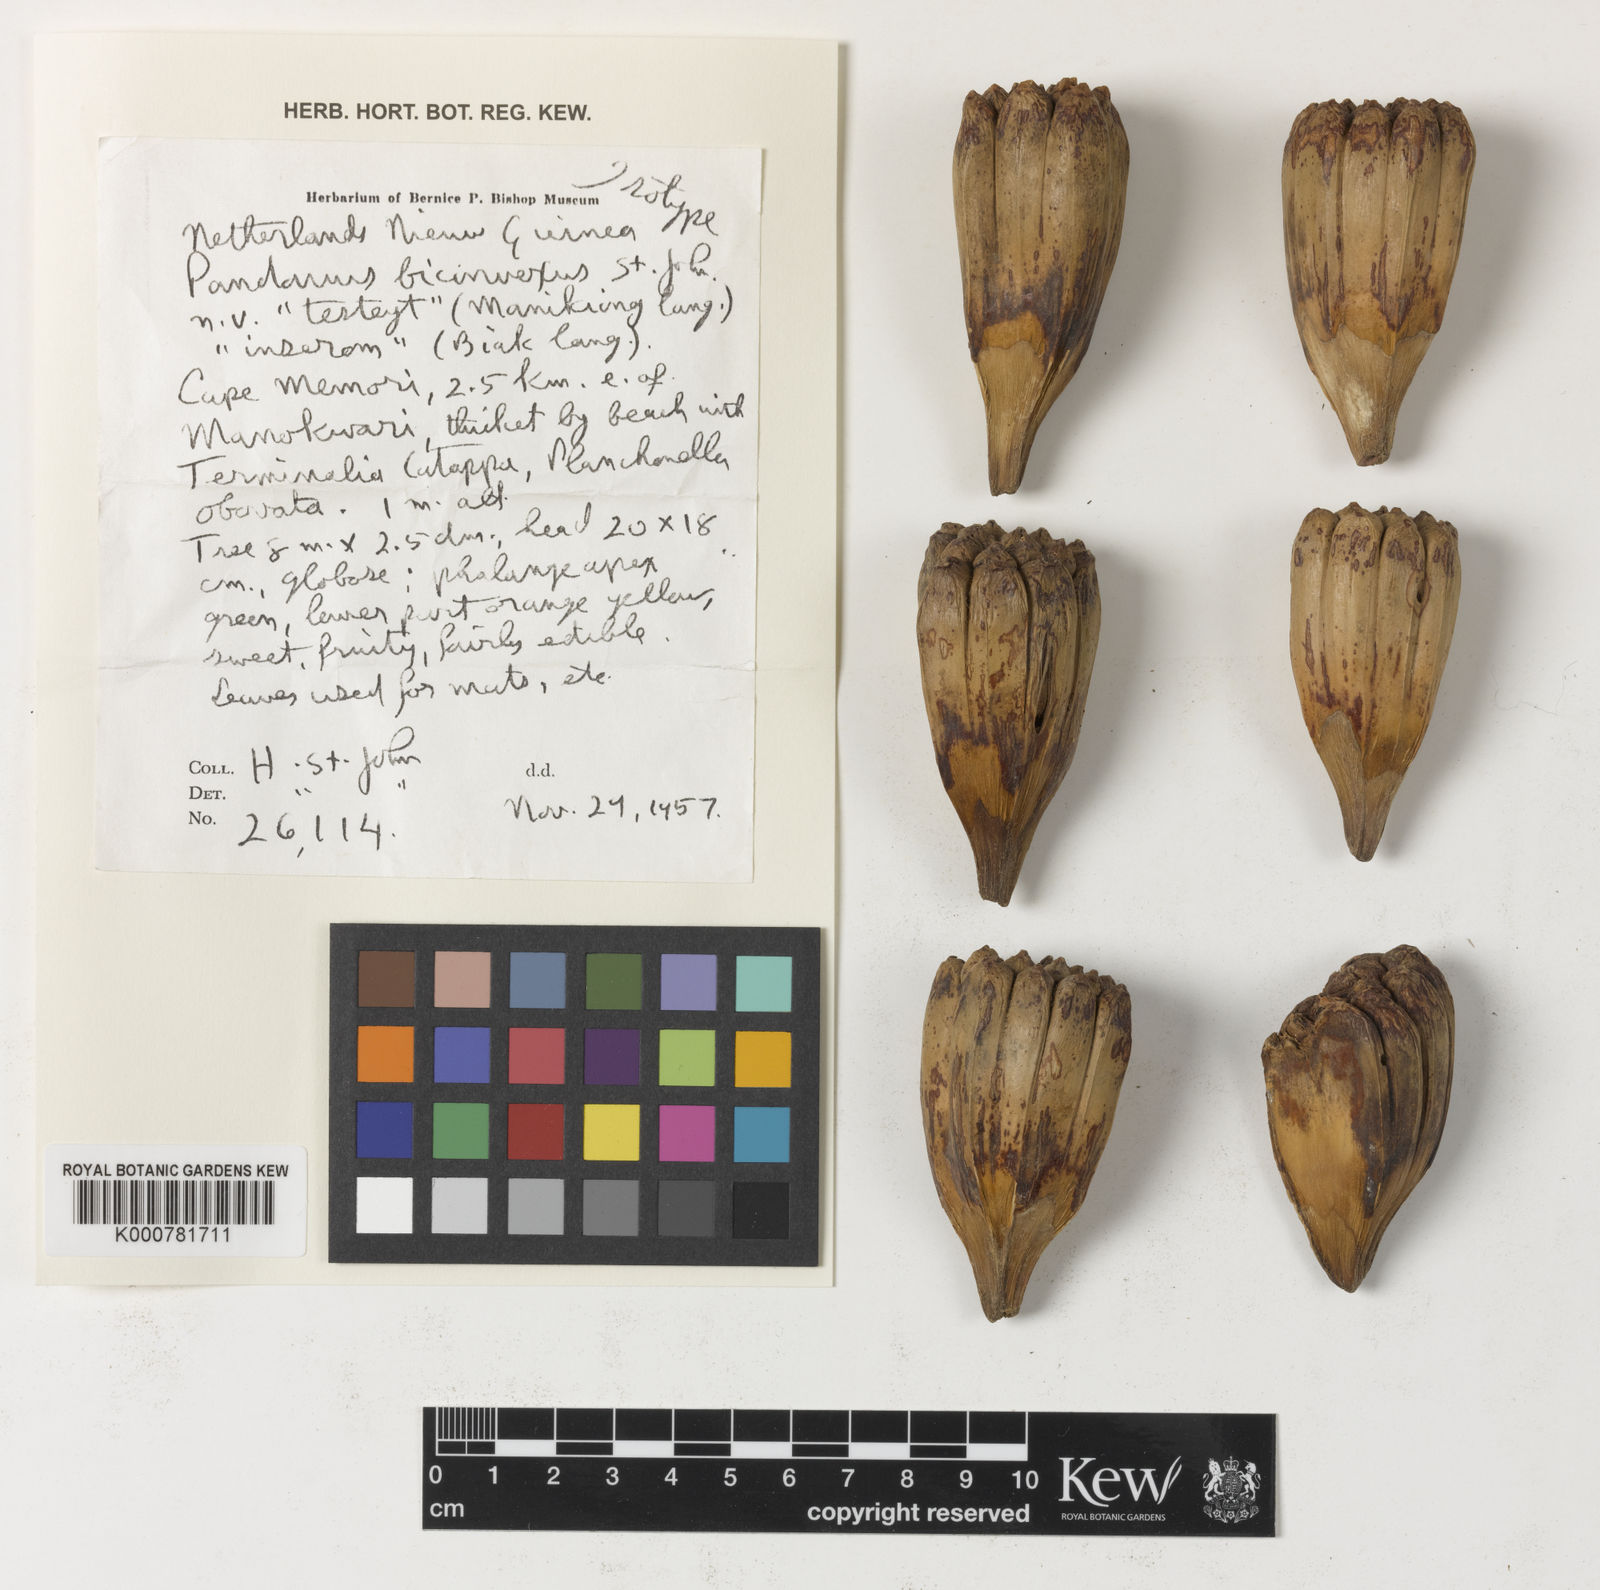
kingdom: Plantae
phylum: Tracheophyta
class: Liliopsida
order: Pandanales
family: Pandanaceae
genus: Pandanus
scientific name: Pandanus
